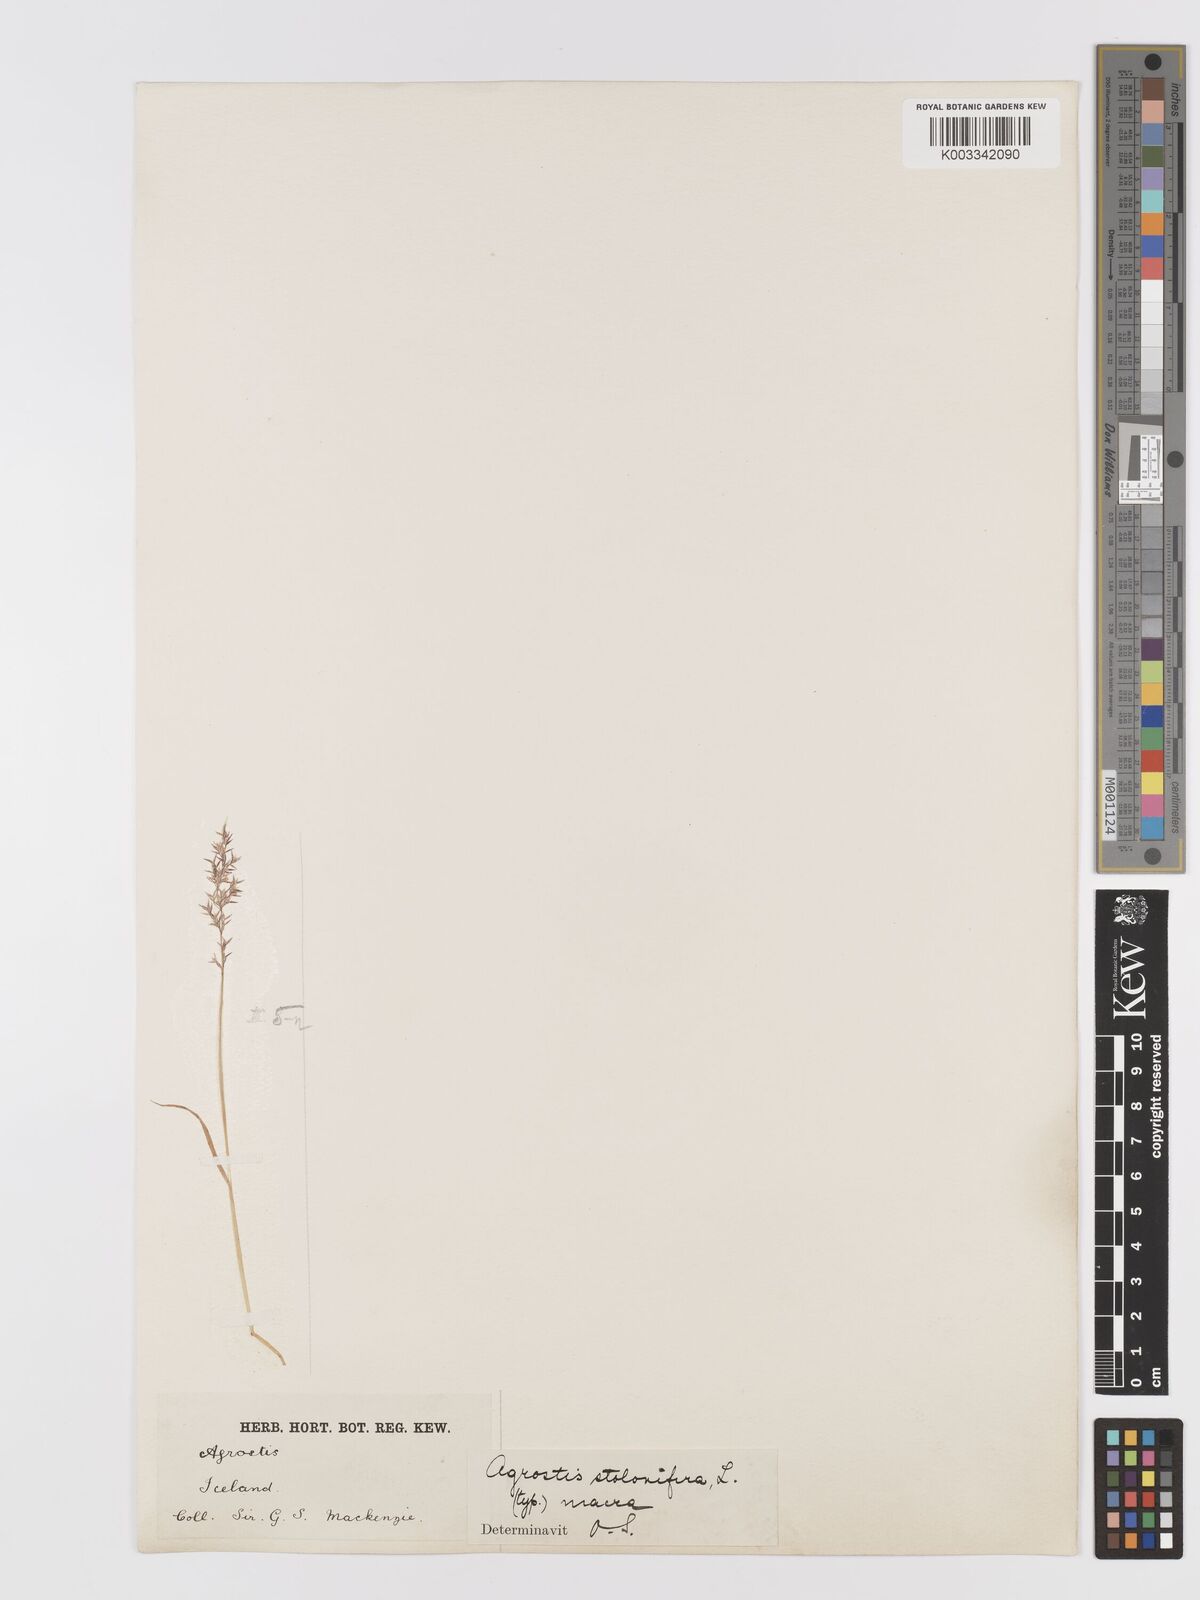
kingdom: Plantae
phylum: Tracheophyta
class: Liliopsida
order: Poales
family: Poaceae
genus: Agrostis
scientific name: Agrostis stolonifera
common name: Creeping bentgrass
